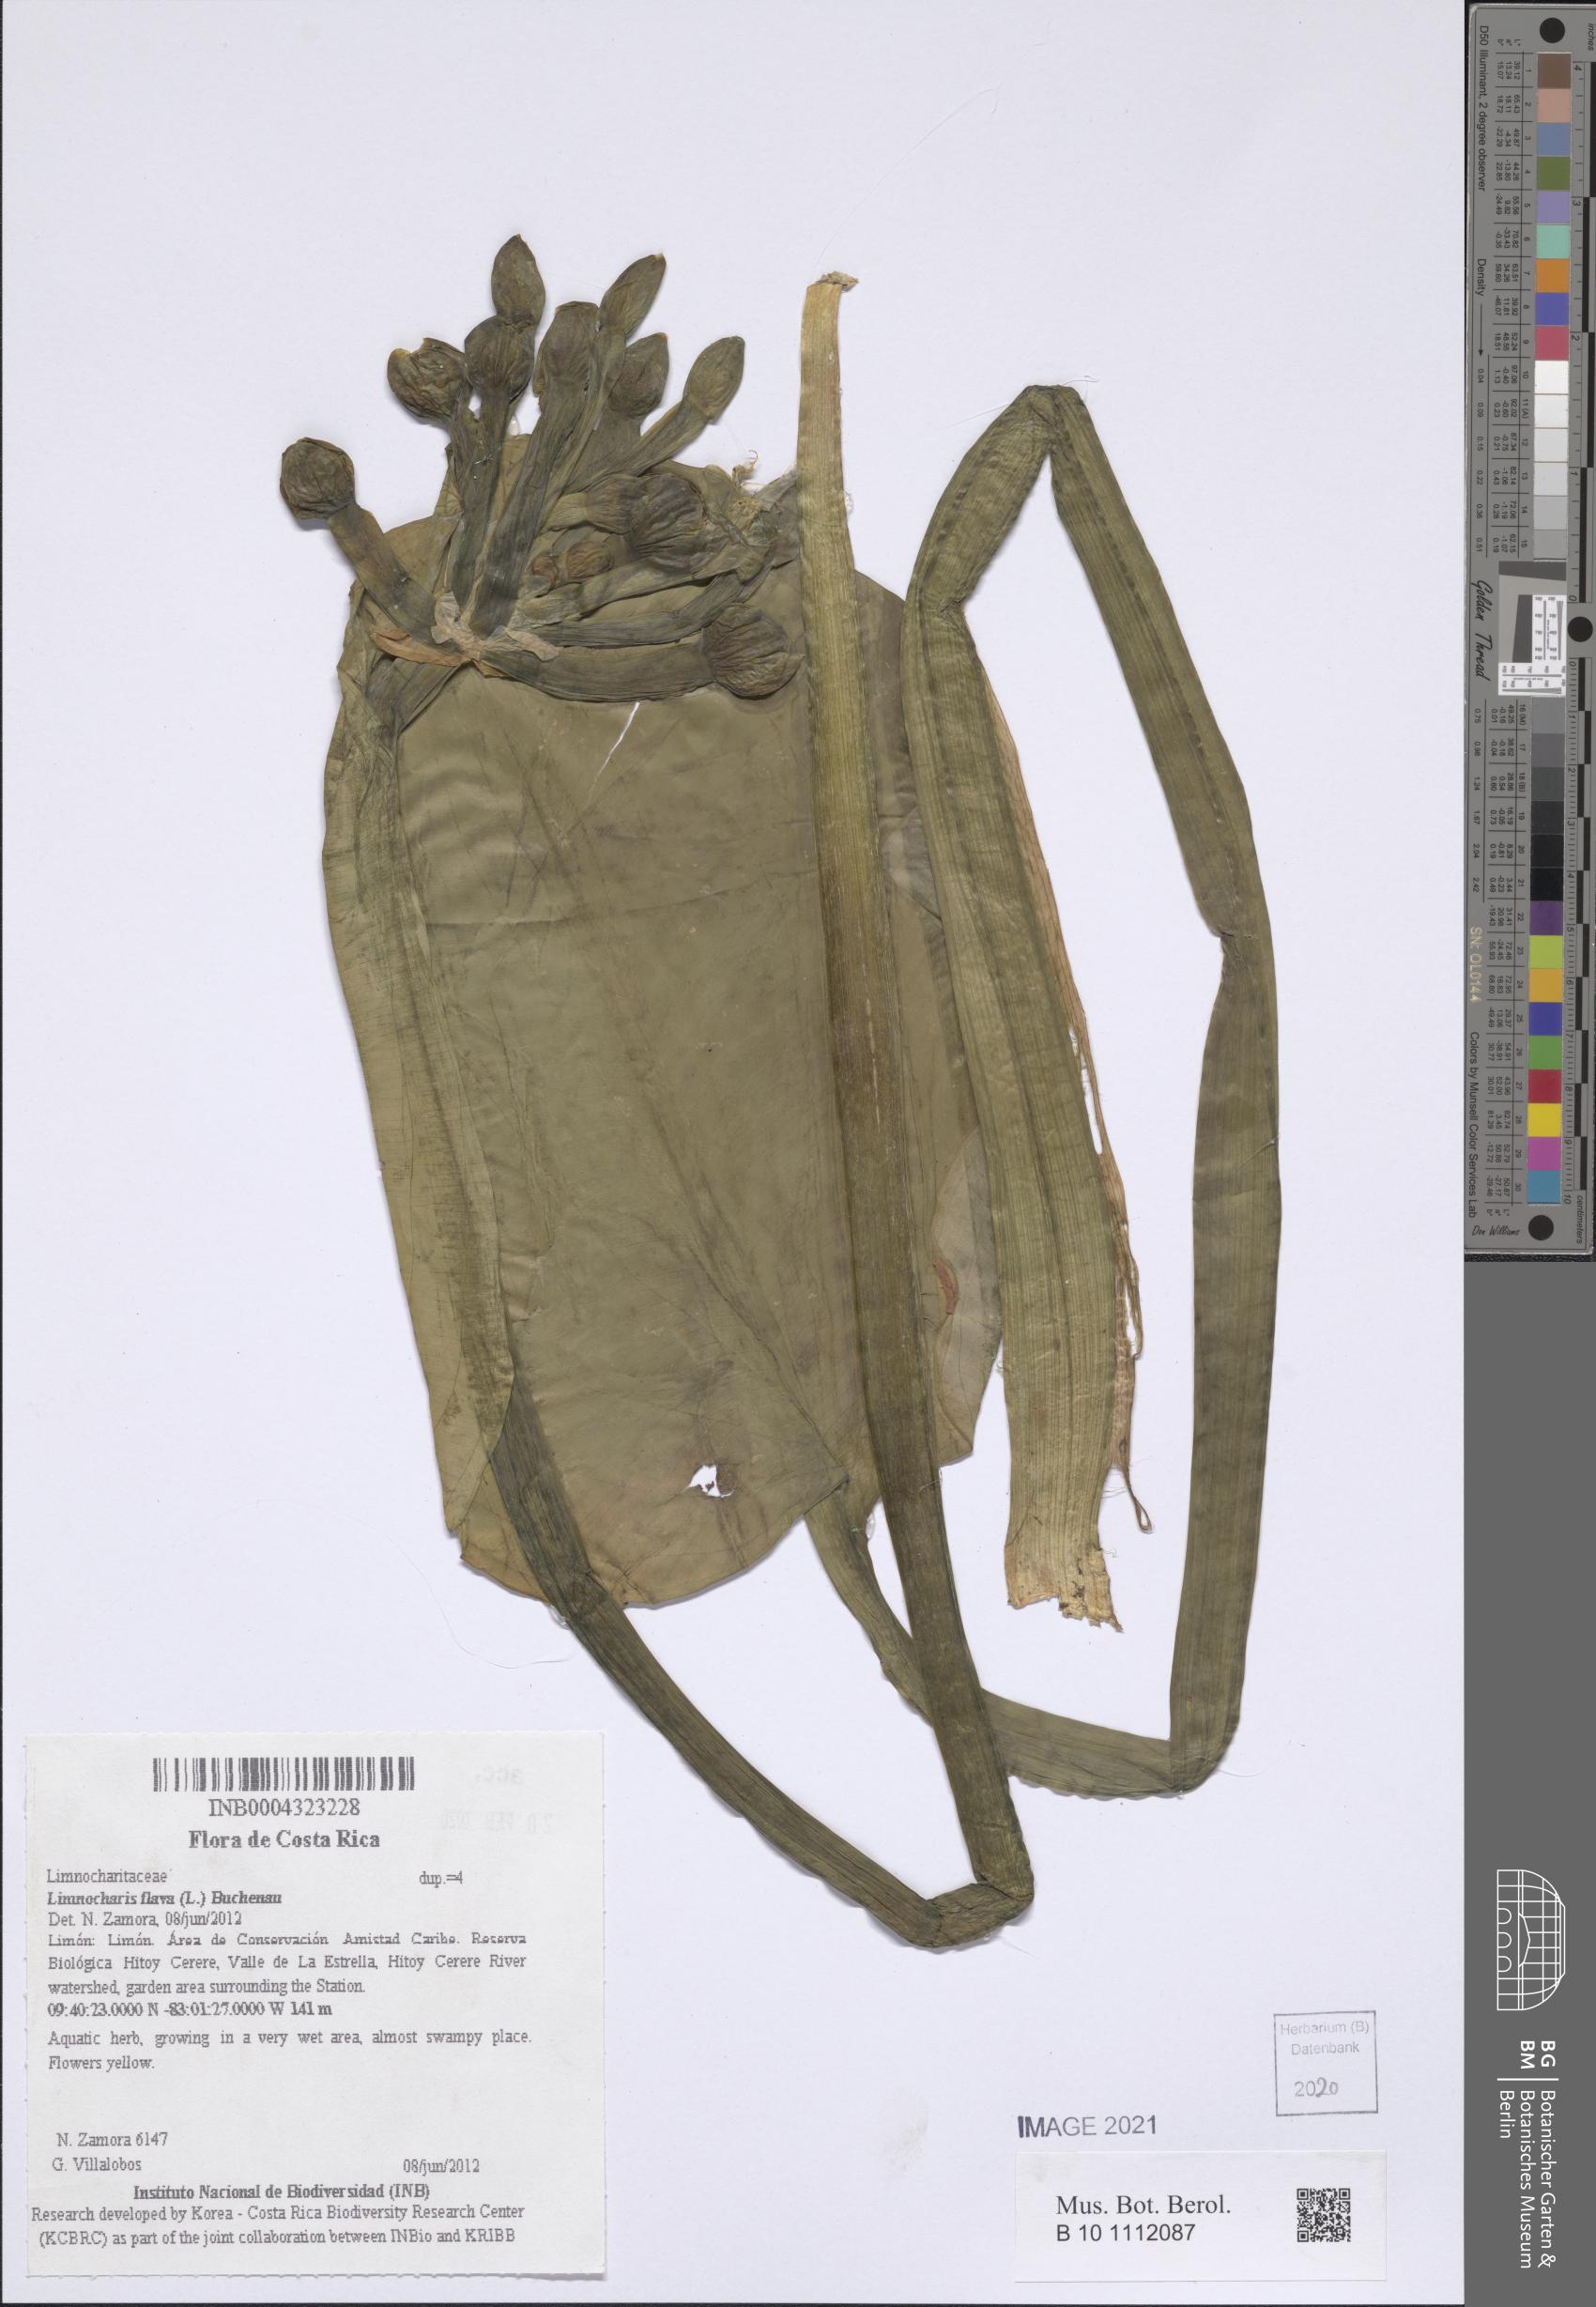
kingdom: Plantae
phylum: Tracheophyta
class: Liliopsida
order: Alismatales
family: Alismataceae
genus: Limnocharis
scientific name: Limnocharis flava
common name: Sawah-flower-rush
